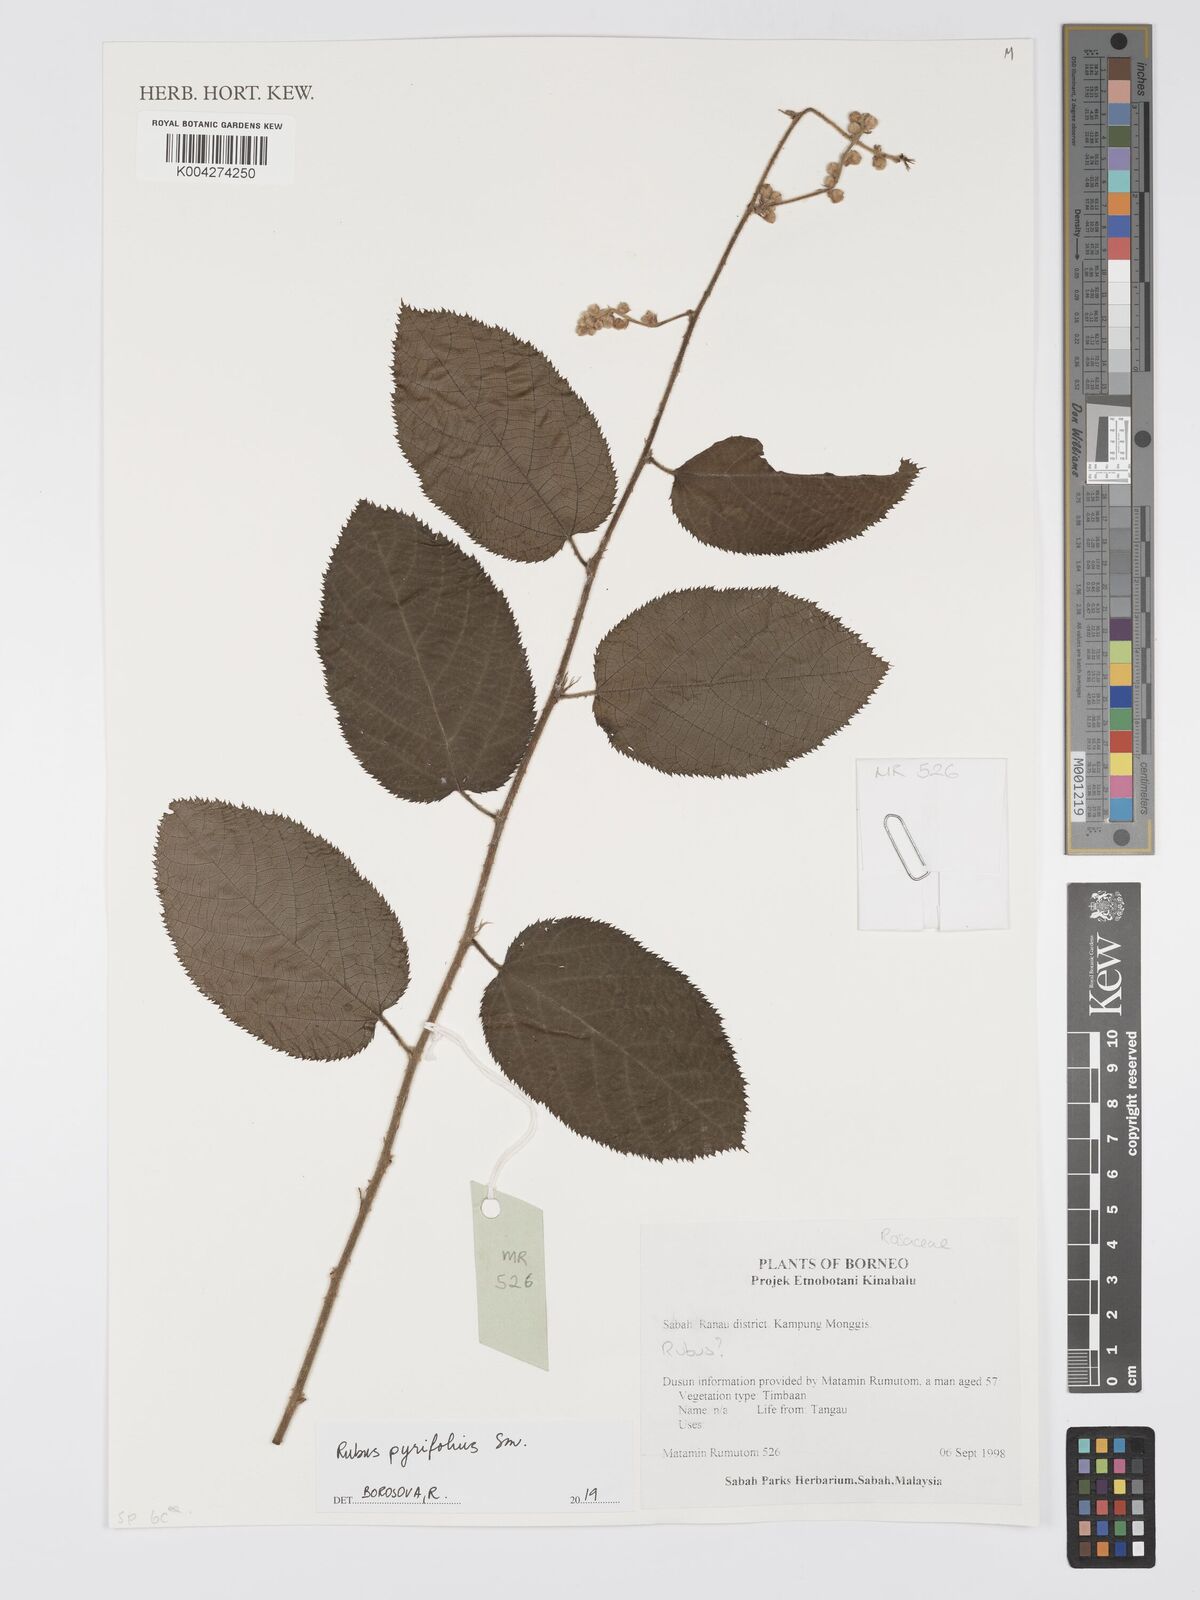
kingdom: Plantae
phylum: Tracheophyta
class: Magnoliopsida
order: Rosales
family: Rosaceae
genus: Rubus
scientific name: Rubus pirifolius
